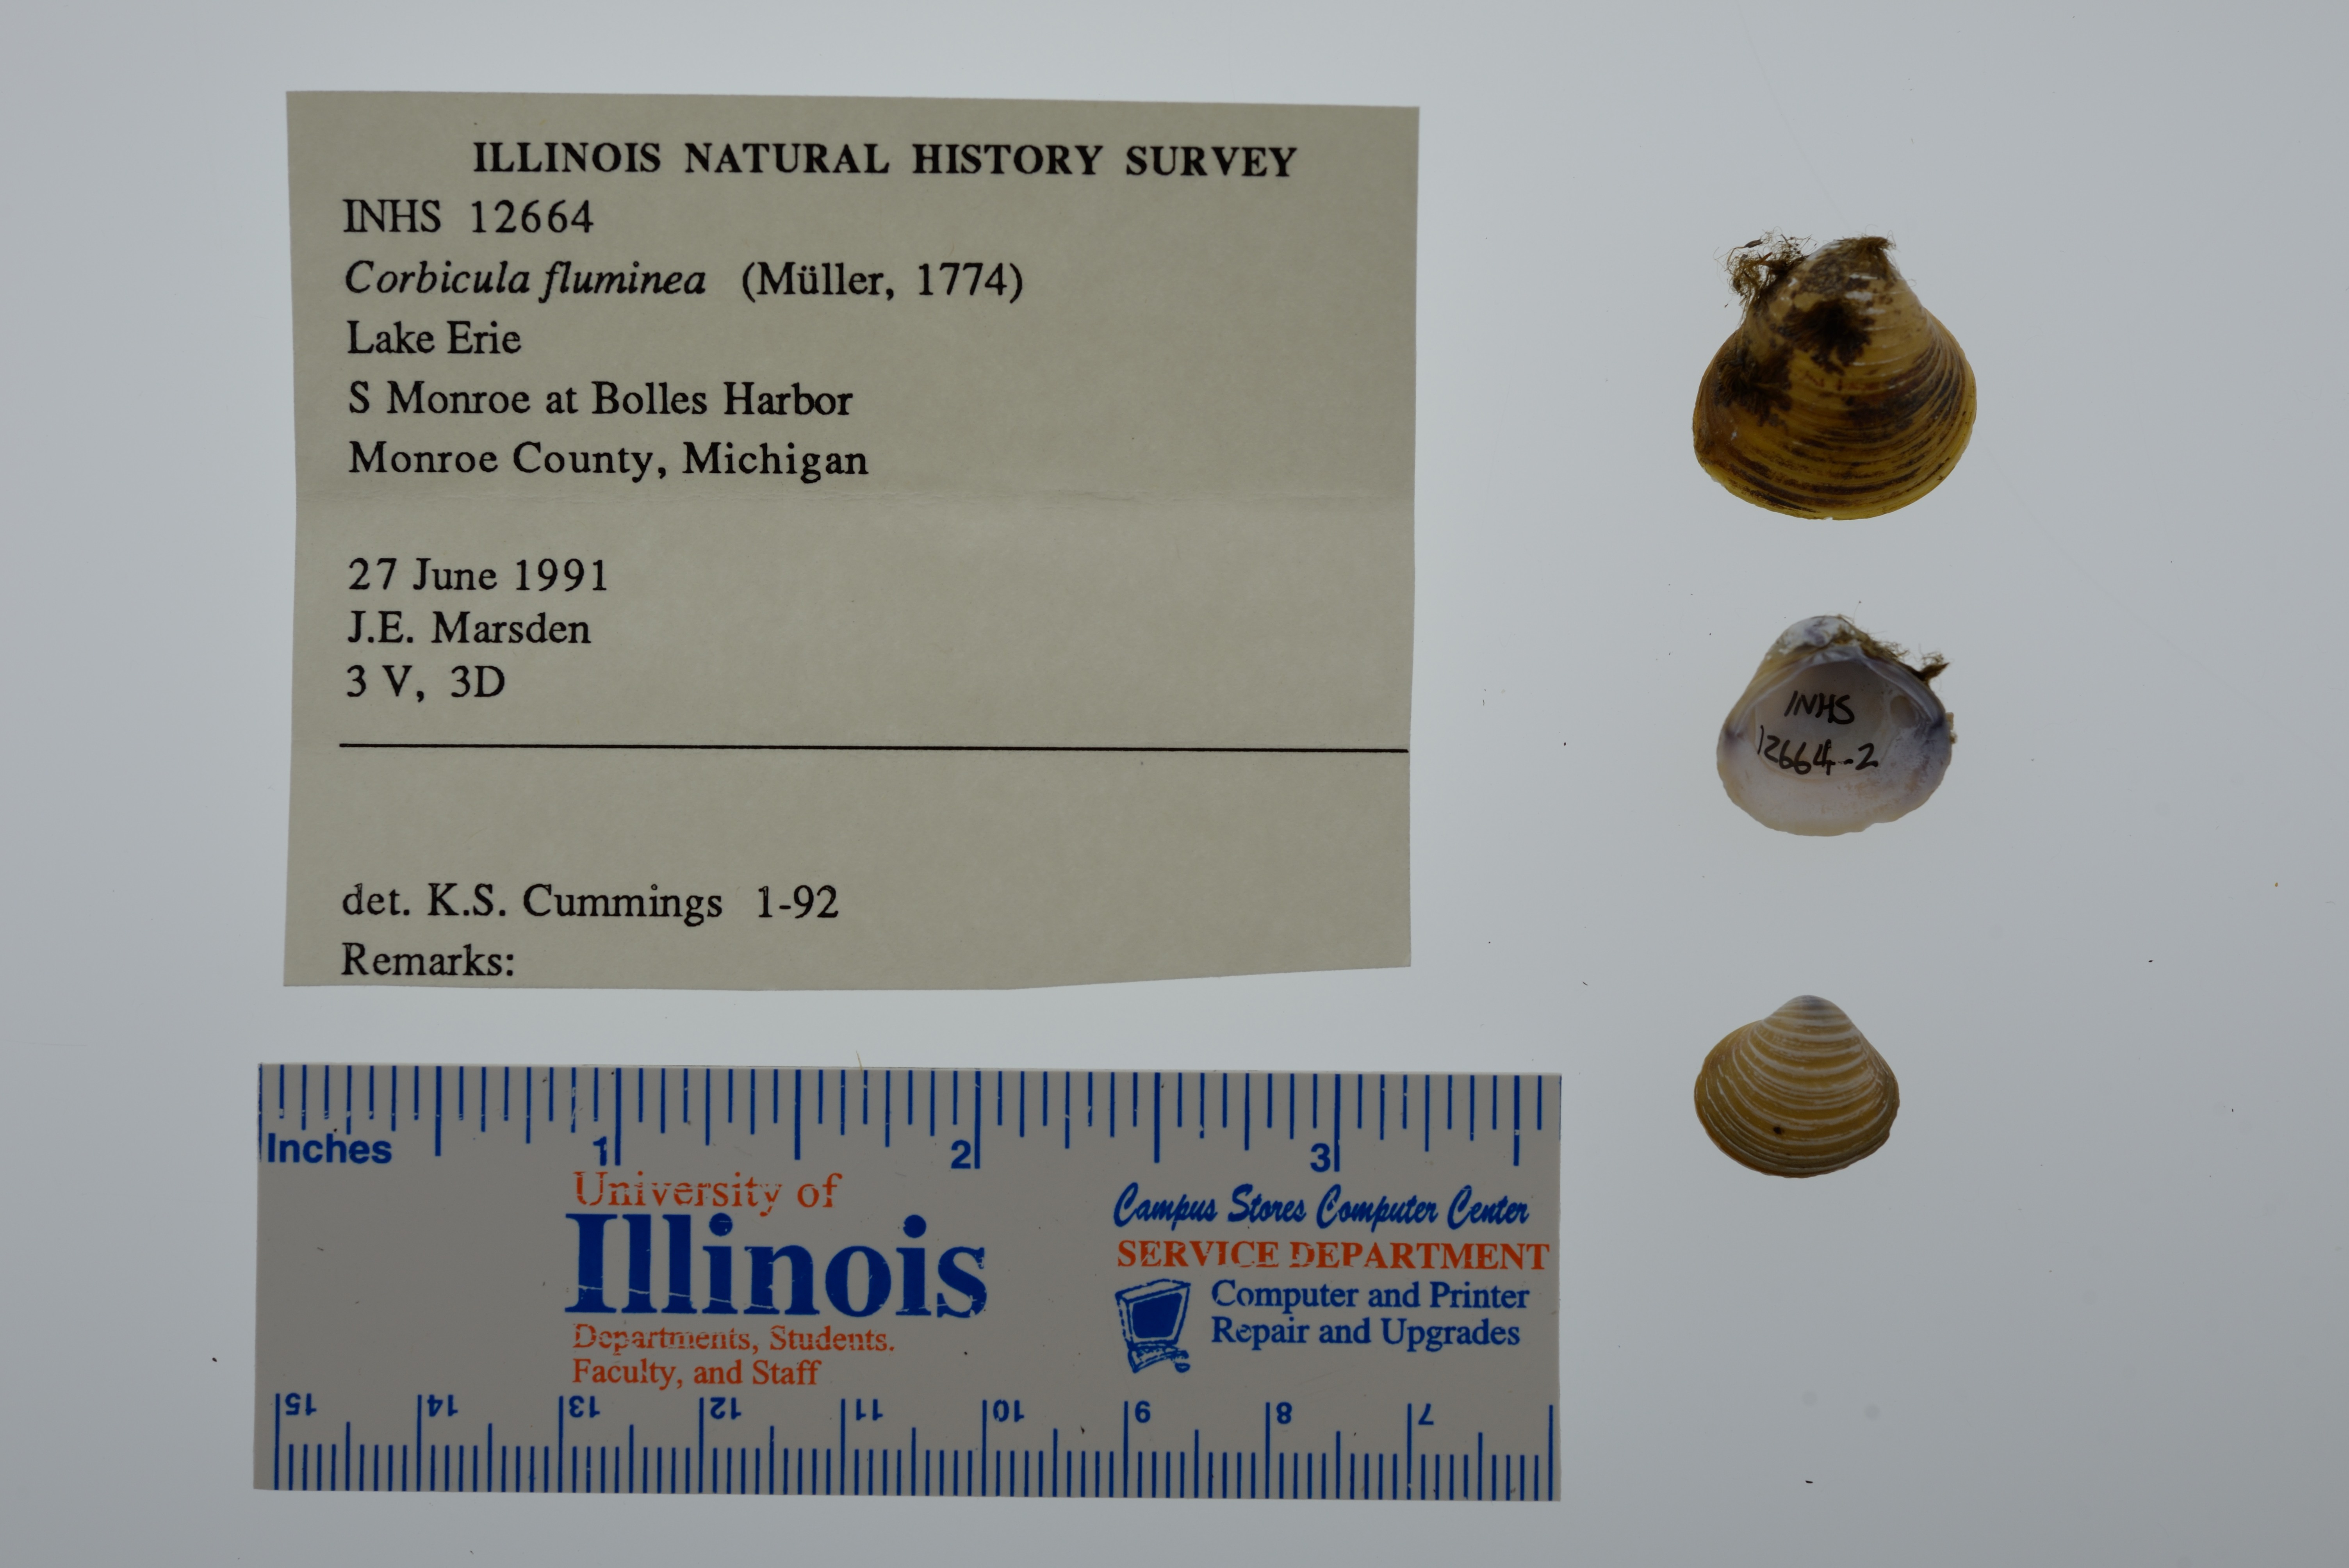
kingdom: Animalia
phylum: Mollusca
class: Bivalvia
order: Venerida
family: Cyrenidae
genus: Corbicula
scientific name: Corbicula fluminea
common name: Asian clam
